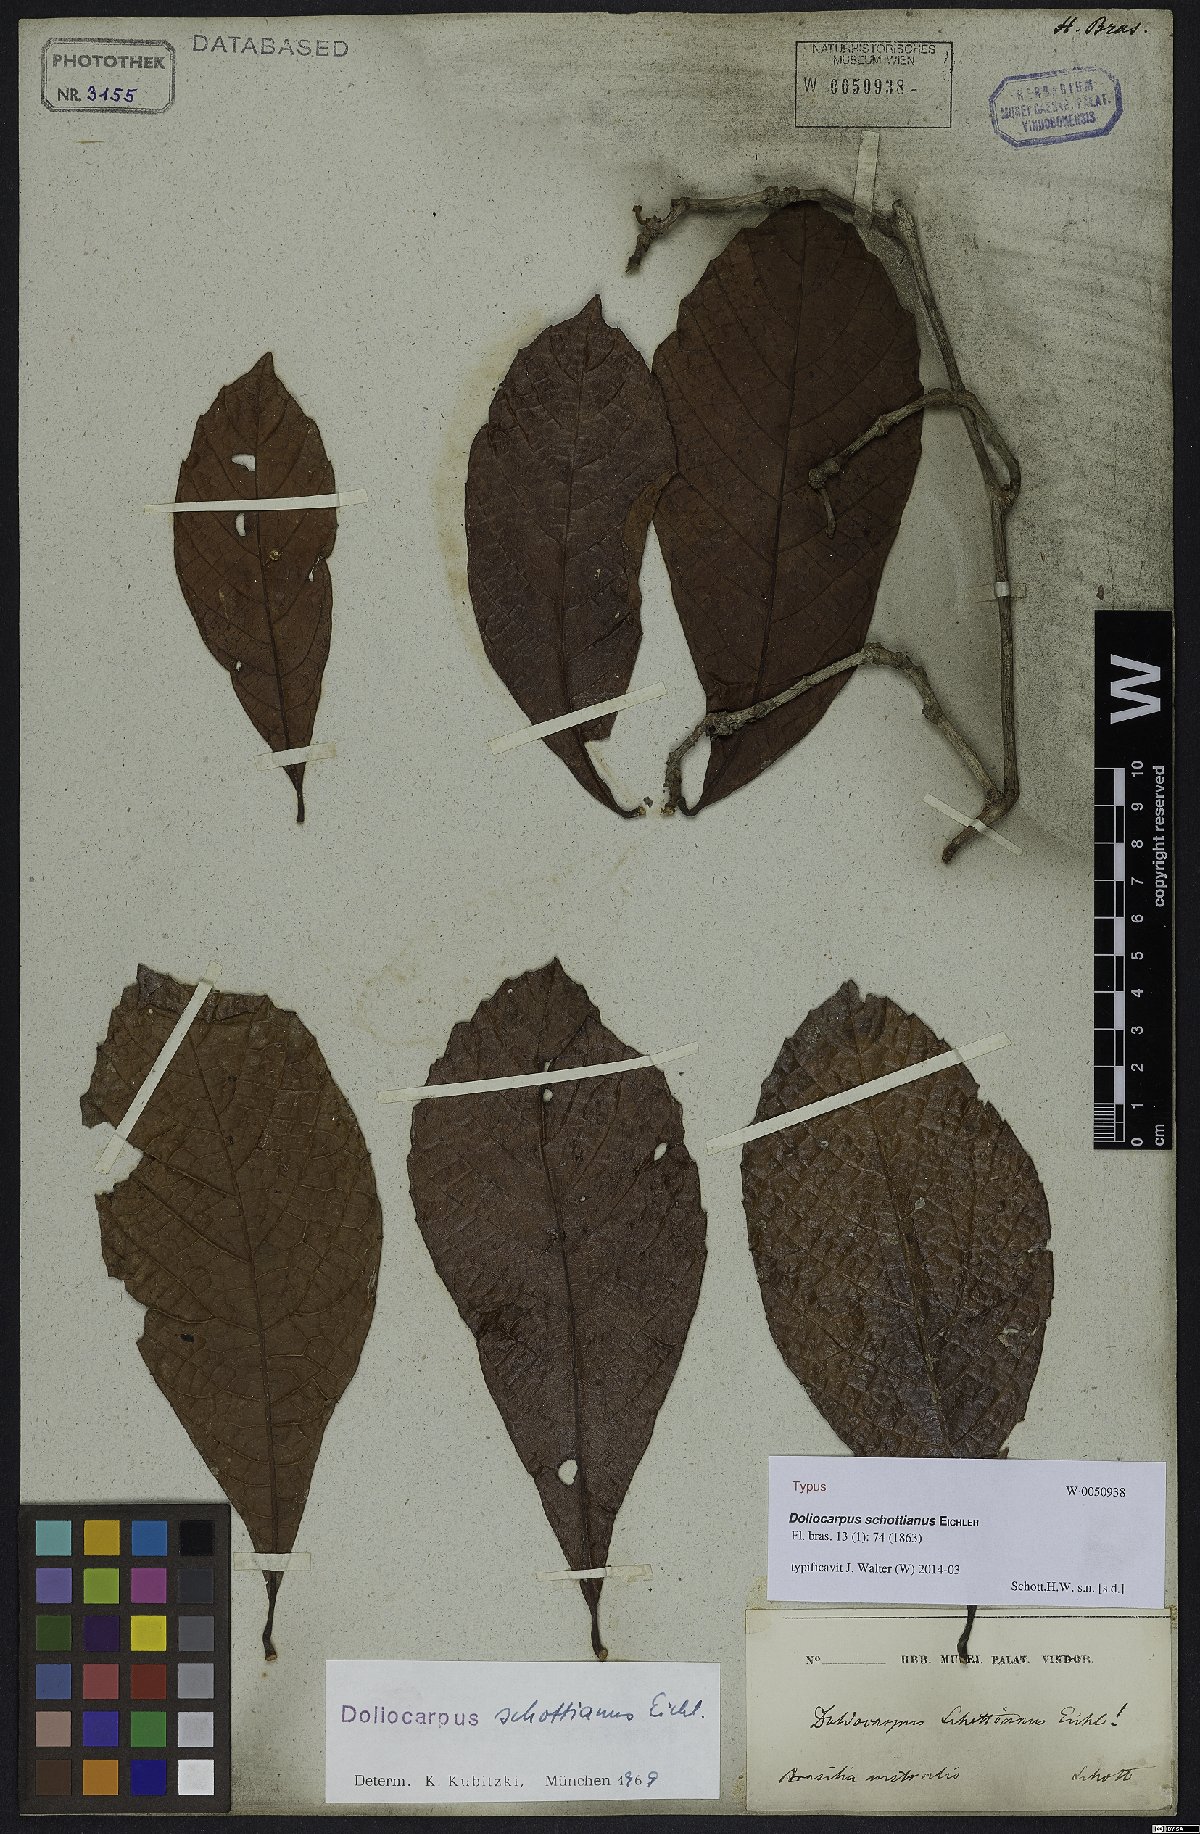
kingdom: Plantae
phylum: Tracheophyta
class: Magnoliopsida
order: Dilleniales
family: Dilleniaceae
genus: Doliocarpus
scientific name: Doliocarpus schottianus
